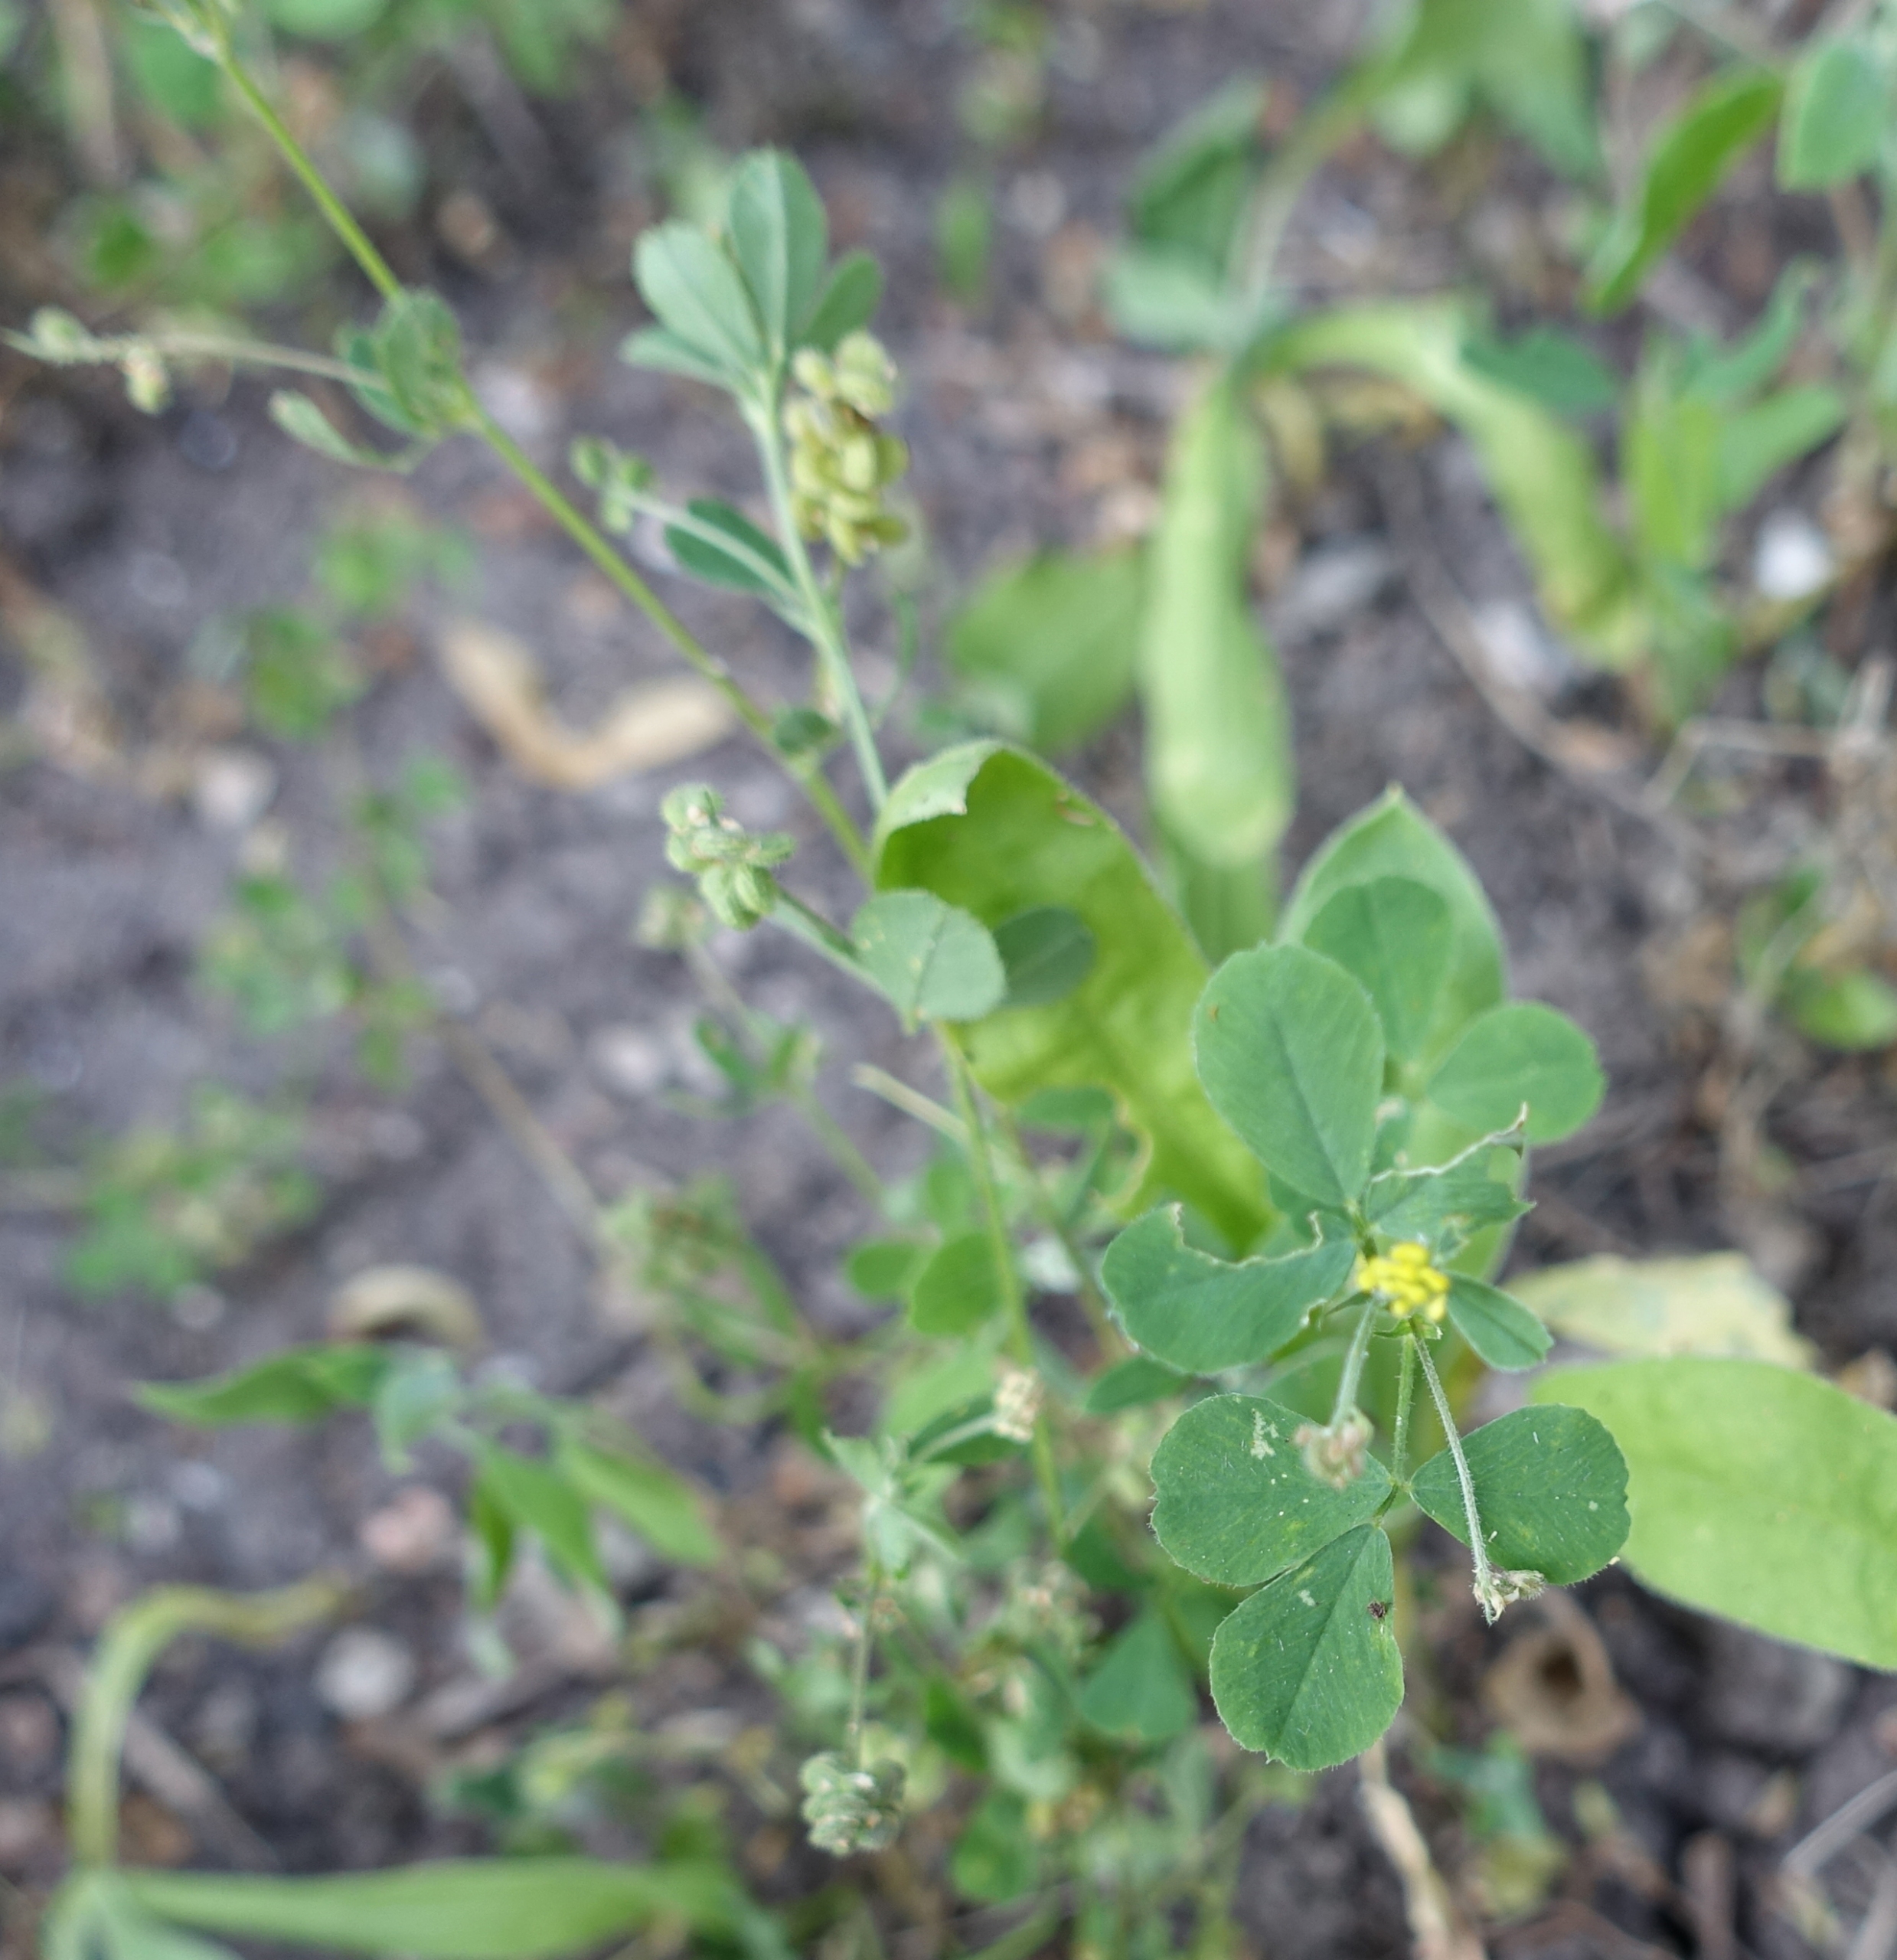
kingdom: Plantae
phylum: Tracheophyta
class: Magnoliopsida
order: Fabales
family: Fabaceae
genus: Medicago
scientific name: Medicago lupulina
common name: Humle-sneglebælg
